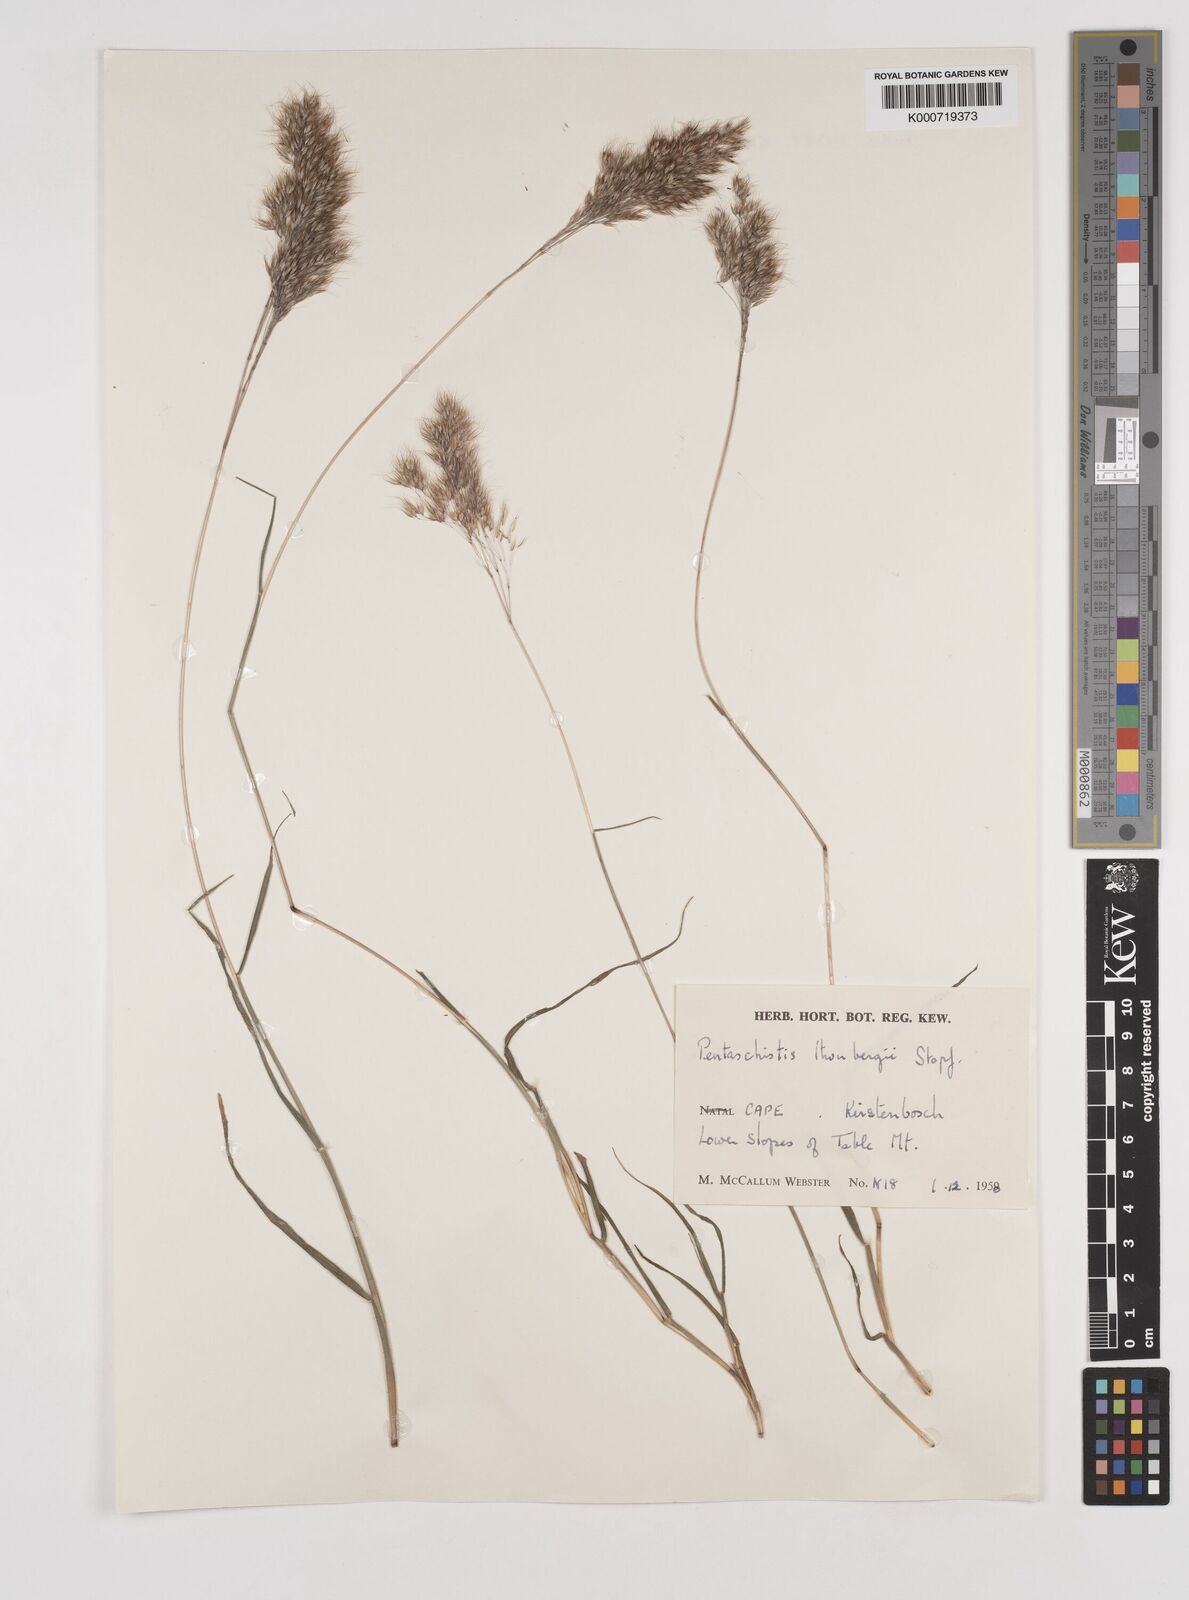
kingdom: Plantae
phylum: Tracheophyta
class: Liliopsida
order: Poales
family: Poaceae
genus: Pentameris
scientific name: Pentameris triseta
